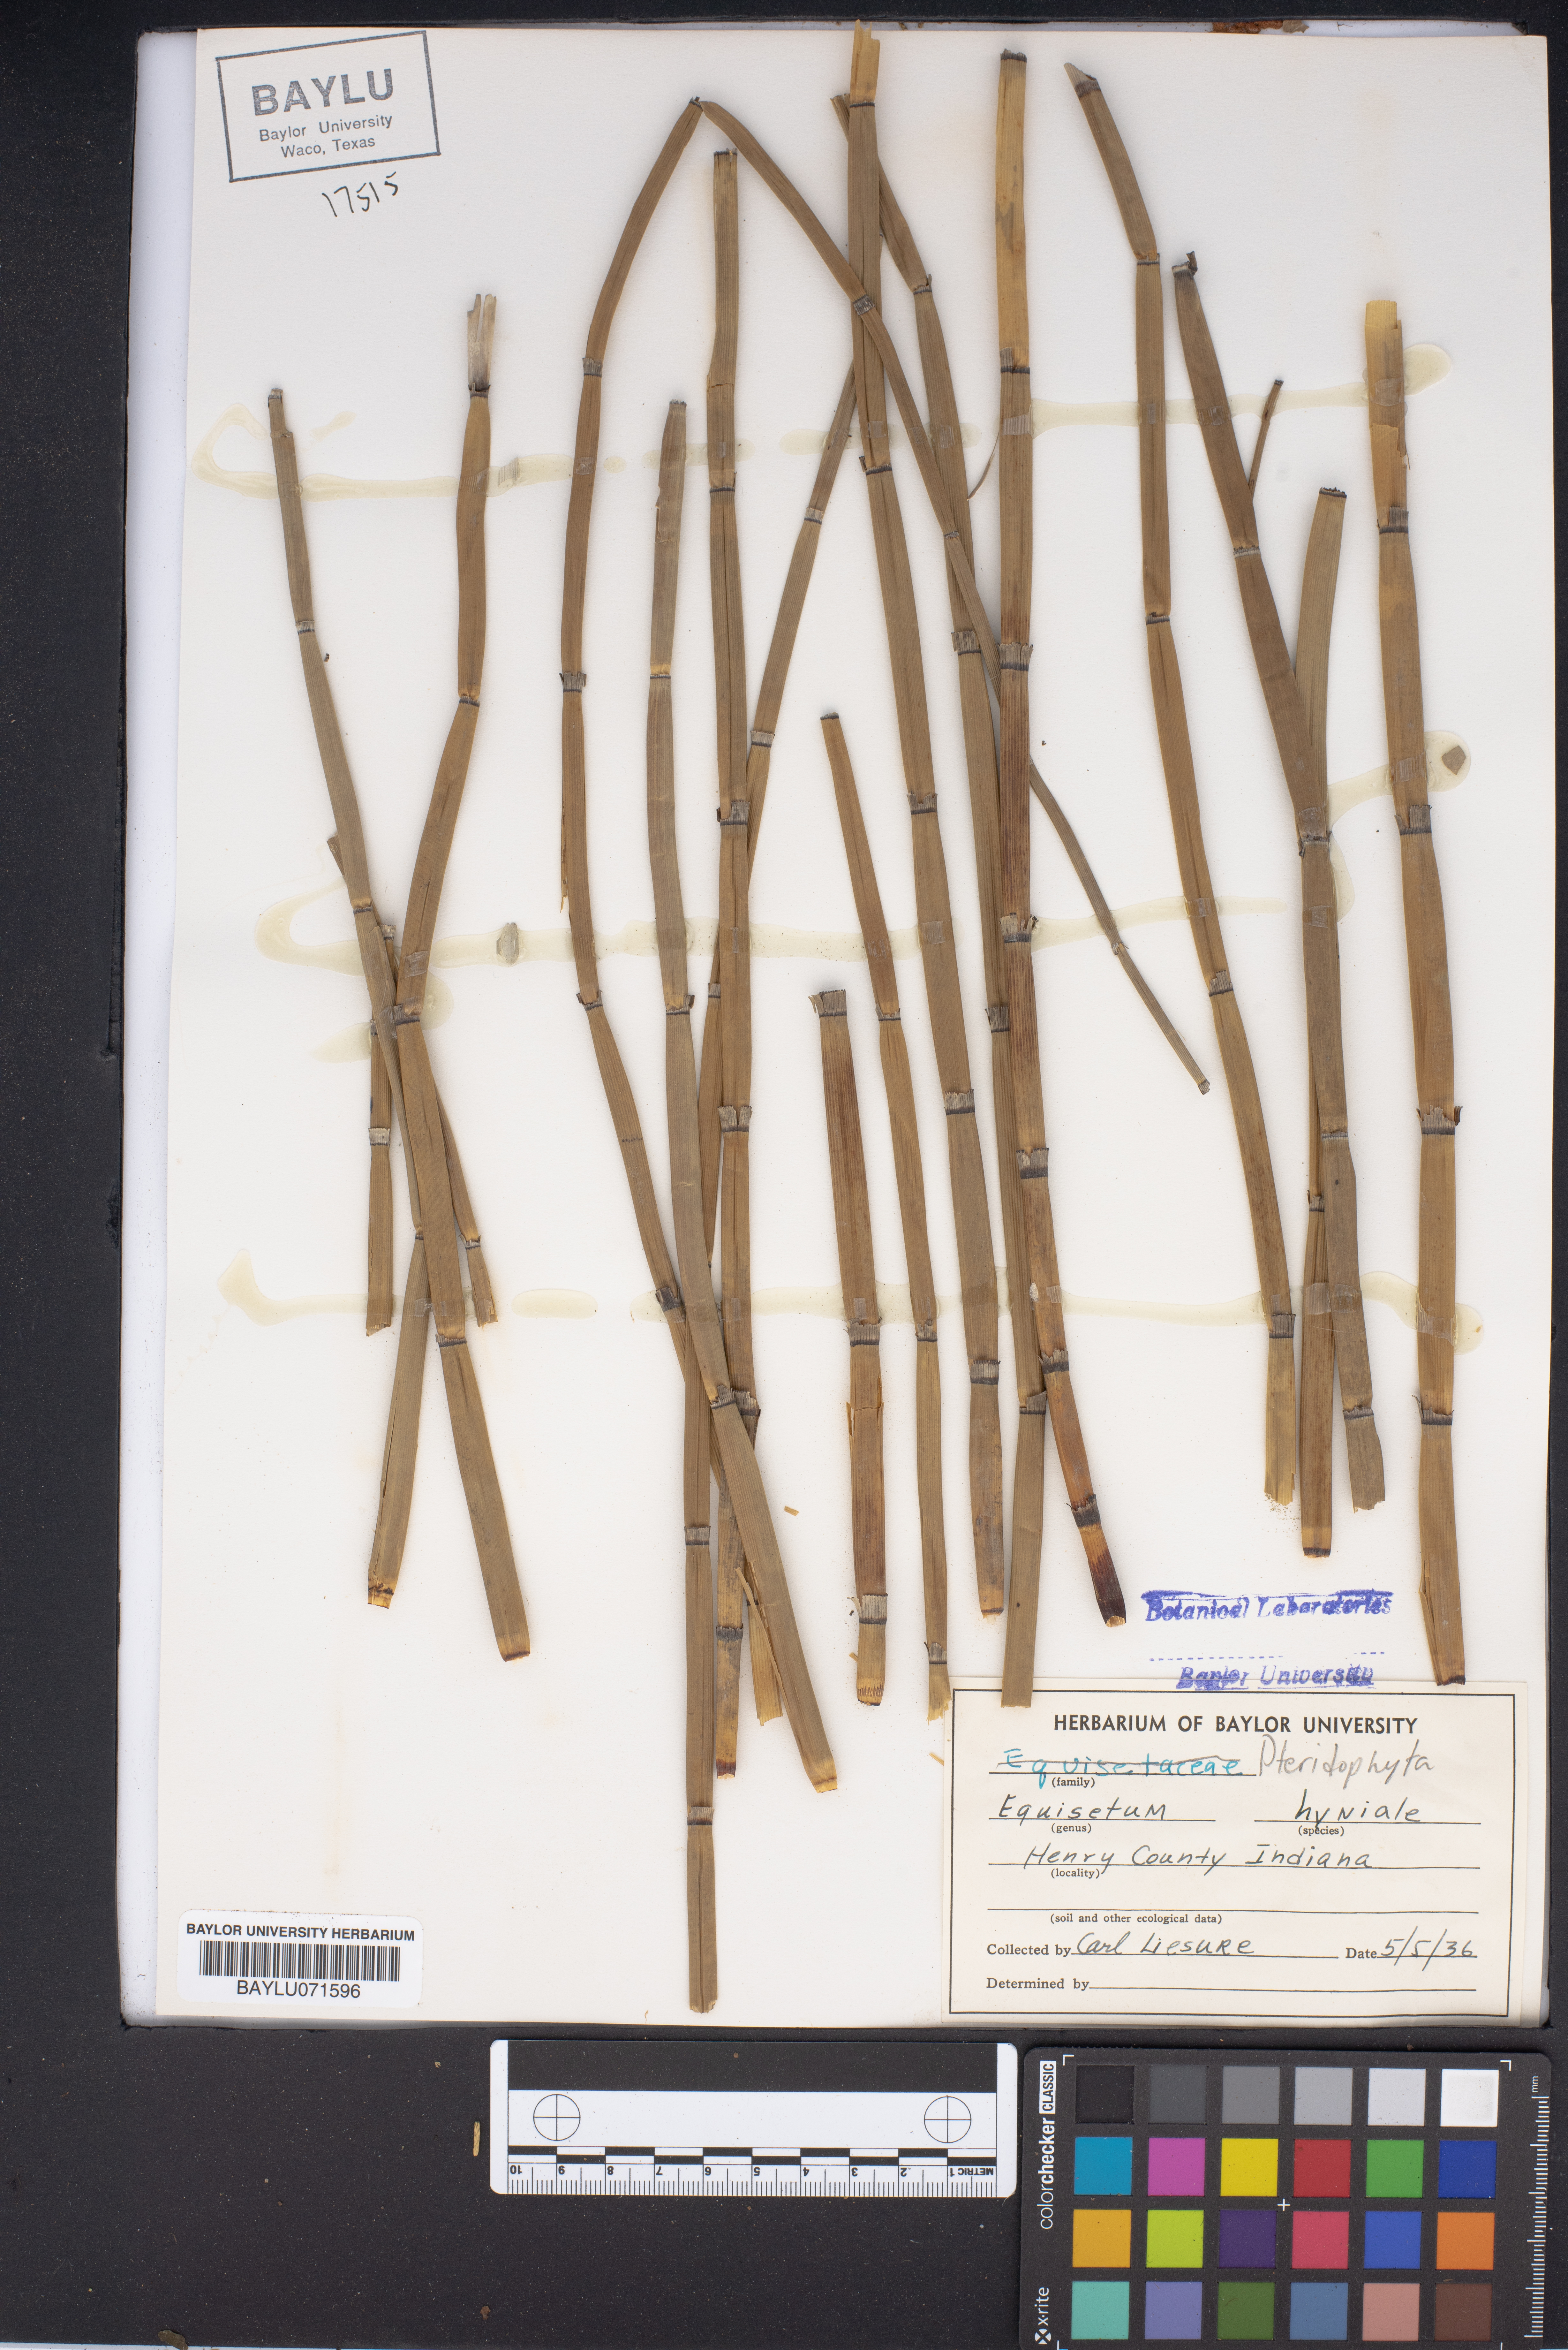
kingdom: Plantae
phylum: Tracheophyta
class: Polypodiopsida
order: Equisetales
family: Equisetaceae
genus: Equisetum
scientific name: Equisetum hyemale
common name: Rough horsetail
